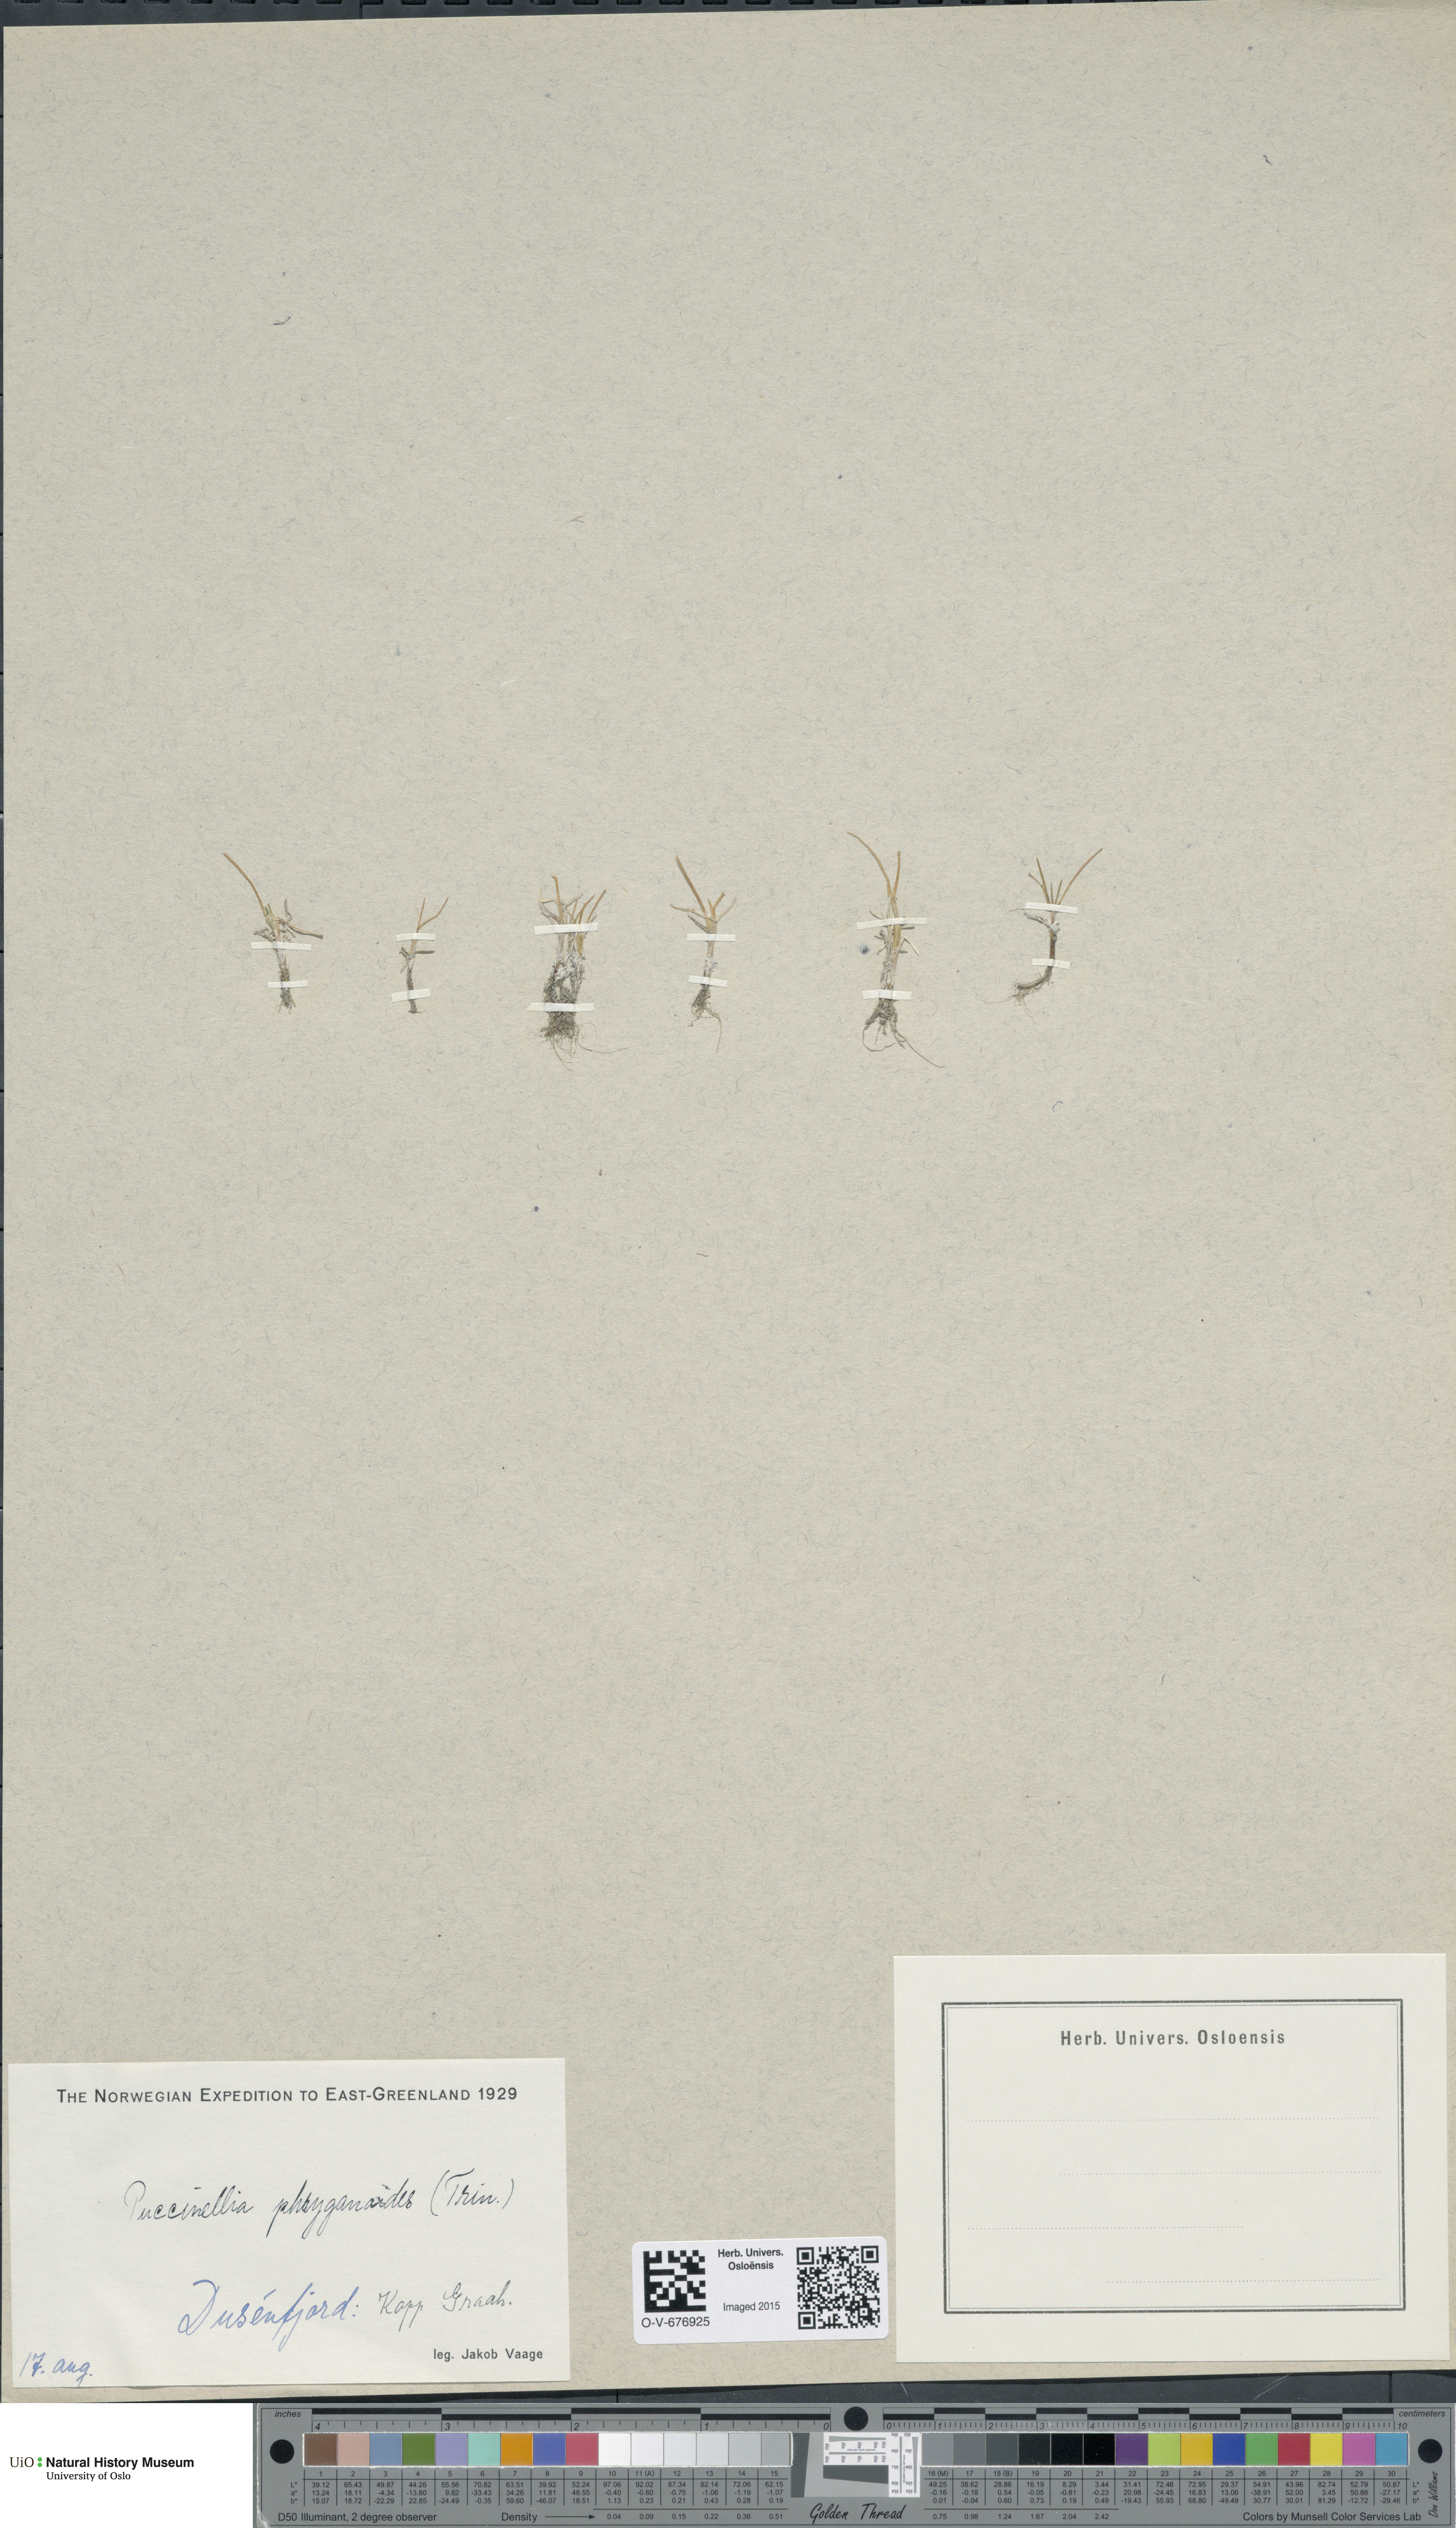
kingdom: Plantae
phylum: Tracheophyta
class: Liliopsida
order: Poales
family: Poaceae
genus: Puccinellia
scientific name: Puccinellia phryganodes
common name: Creeping alkaligrass
